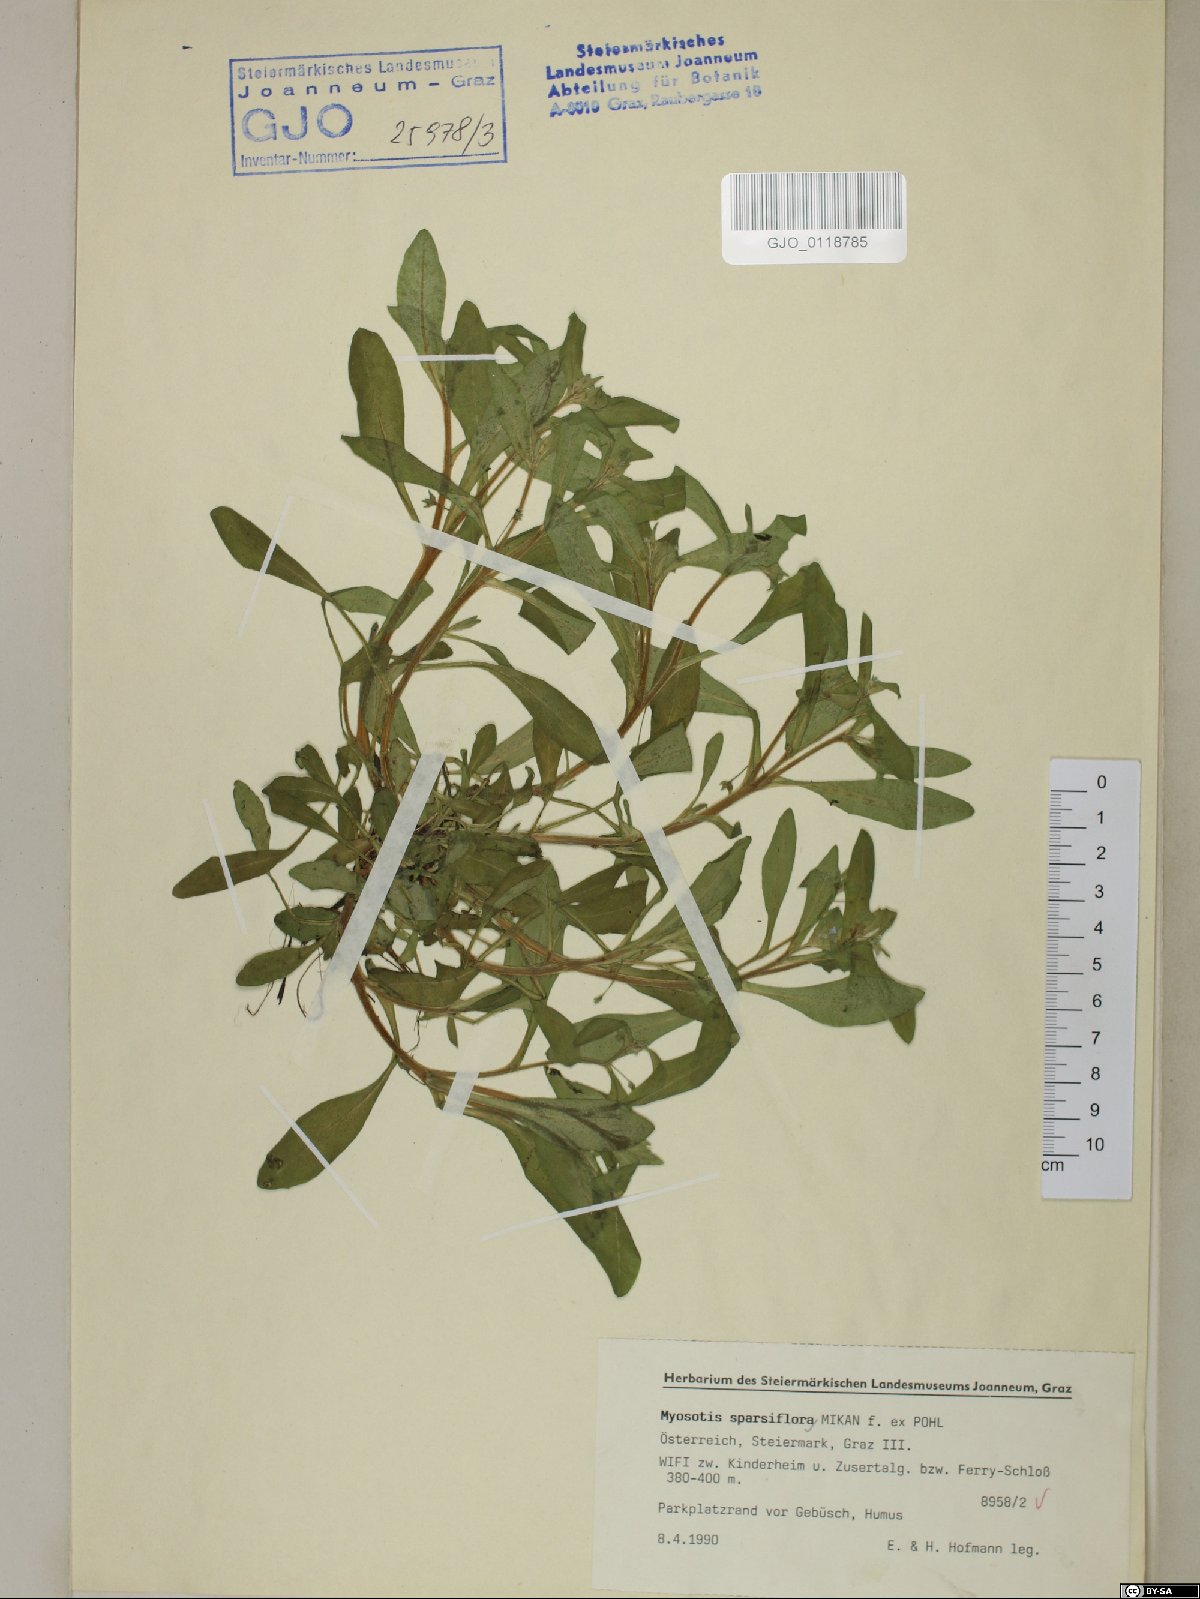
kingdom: Plantae
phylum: Tracheophyta
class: Magnoliopsida
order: Boraginales
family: Boraginaceae
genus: Myosotis
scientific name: Myosotis sparsiflora
